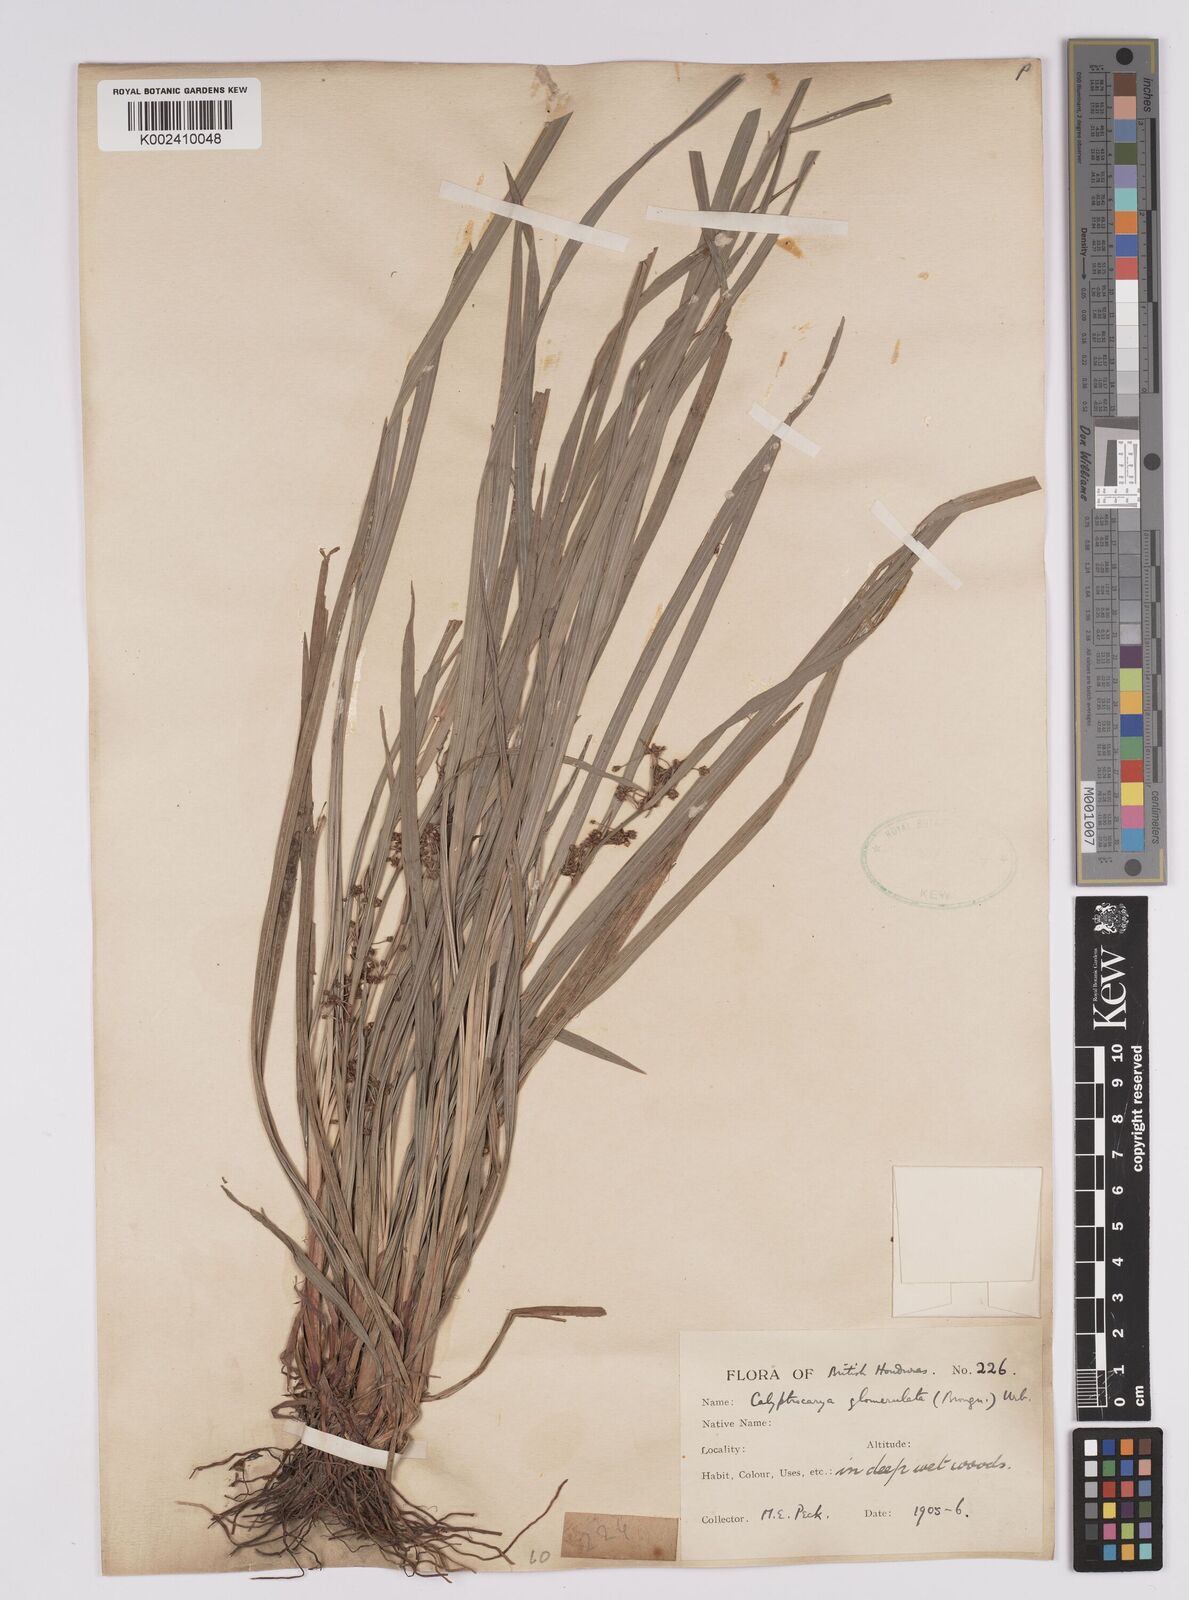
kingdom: Plantae
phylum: Tracheophyta
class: Liliopsida
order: Poales
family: Cyperaceae
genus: Calyptrocarya
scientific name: Calyptrocarya
